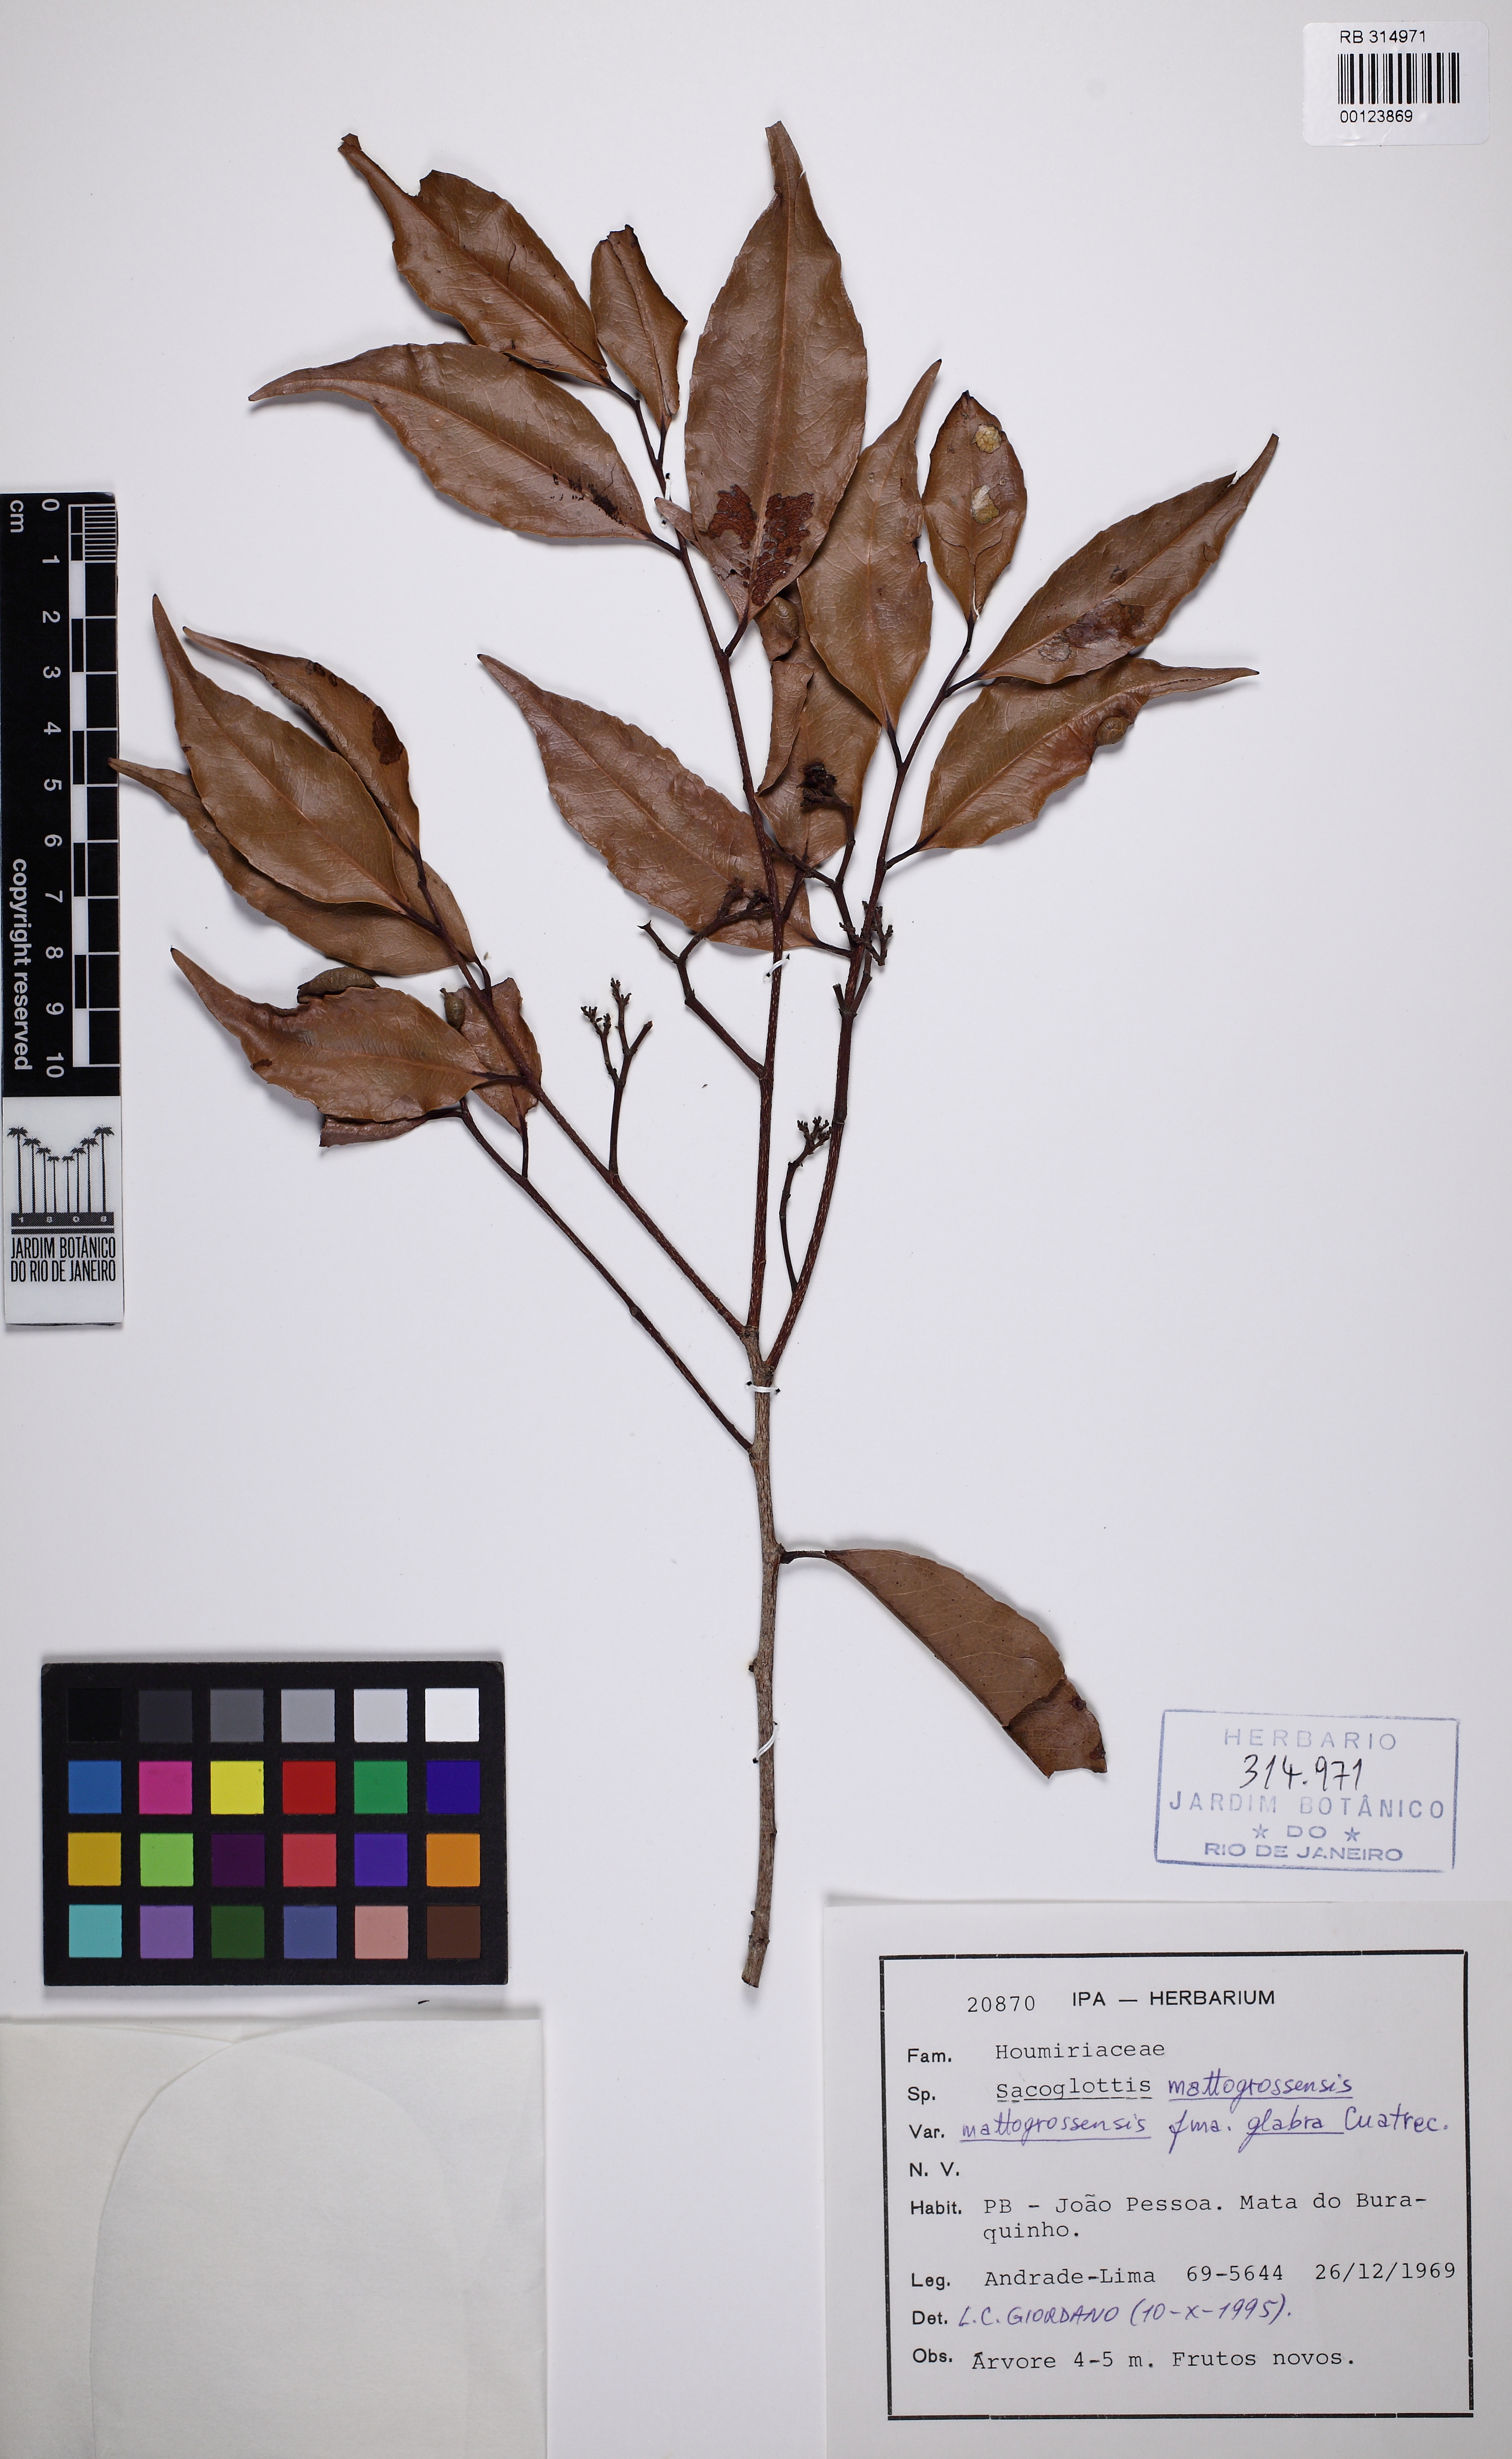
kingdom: Plantae
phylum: Tracheophyta
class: Magnoliopsida
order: Malpighiales
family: Humiriaceae
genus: Sacoglottis
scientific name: Sacoglottis mattogrossensis
